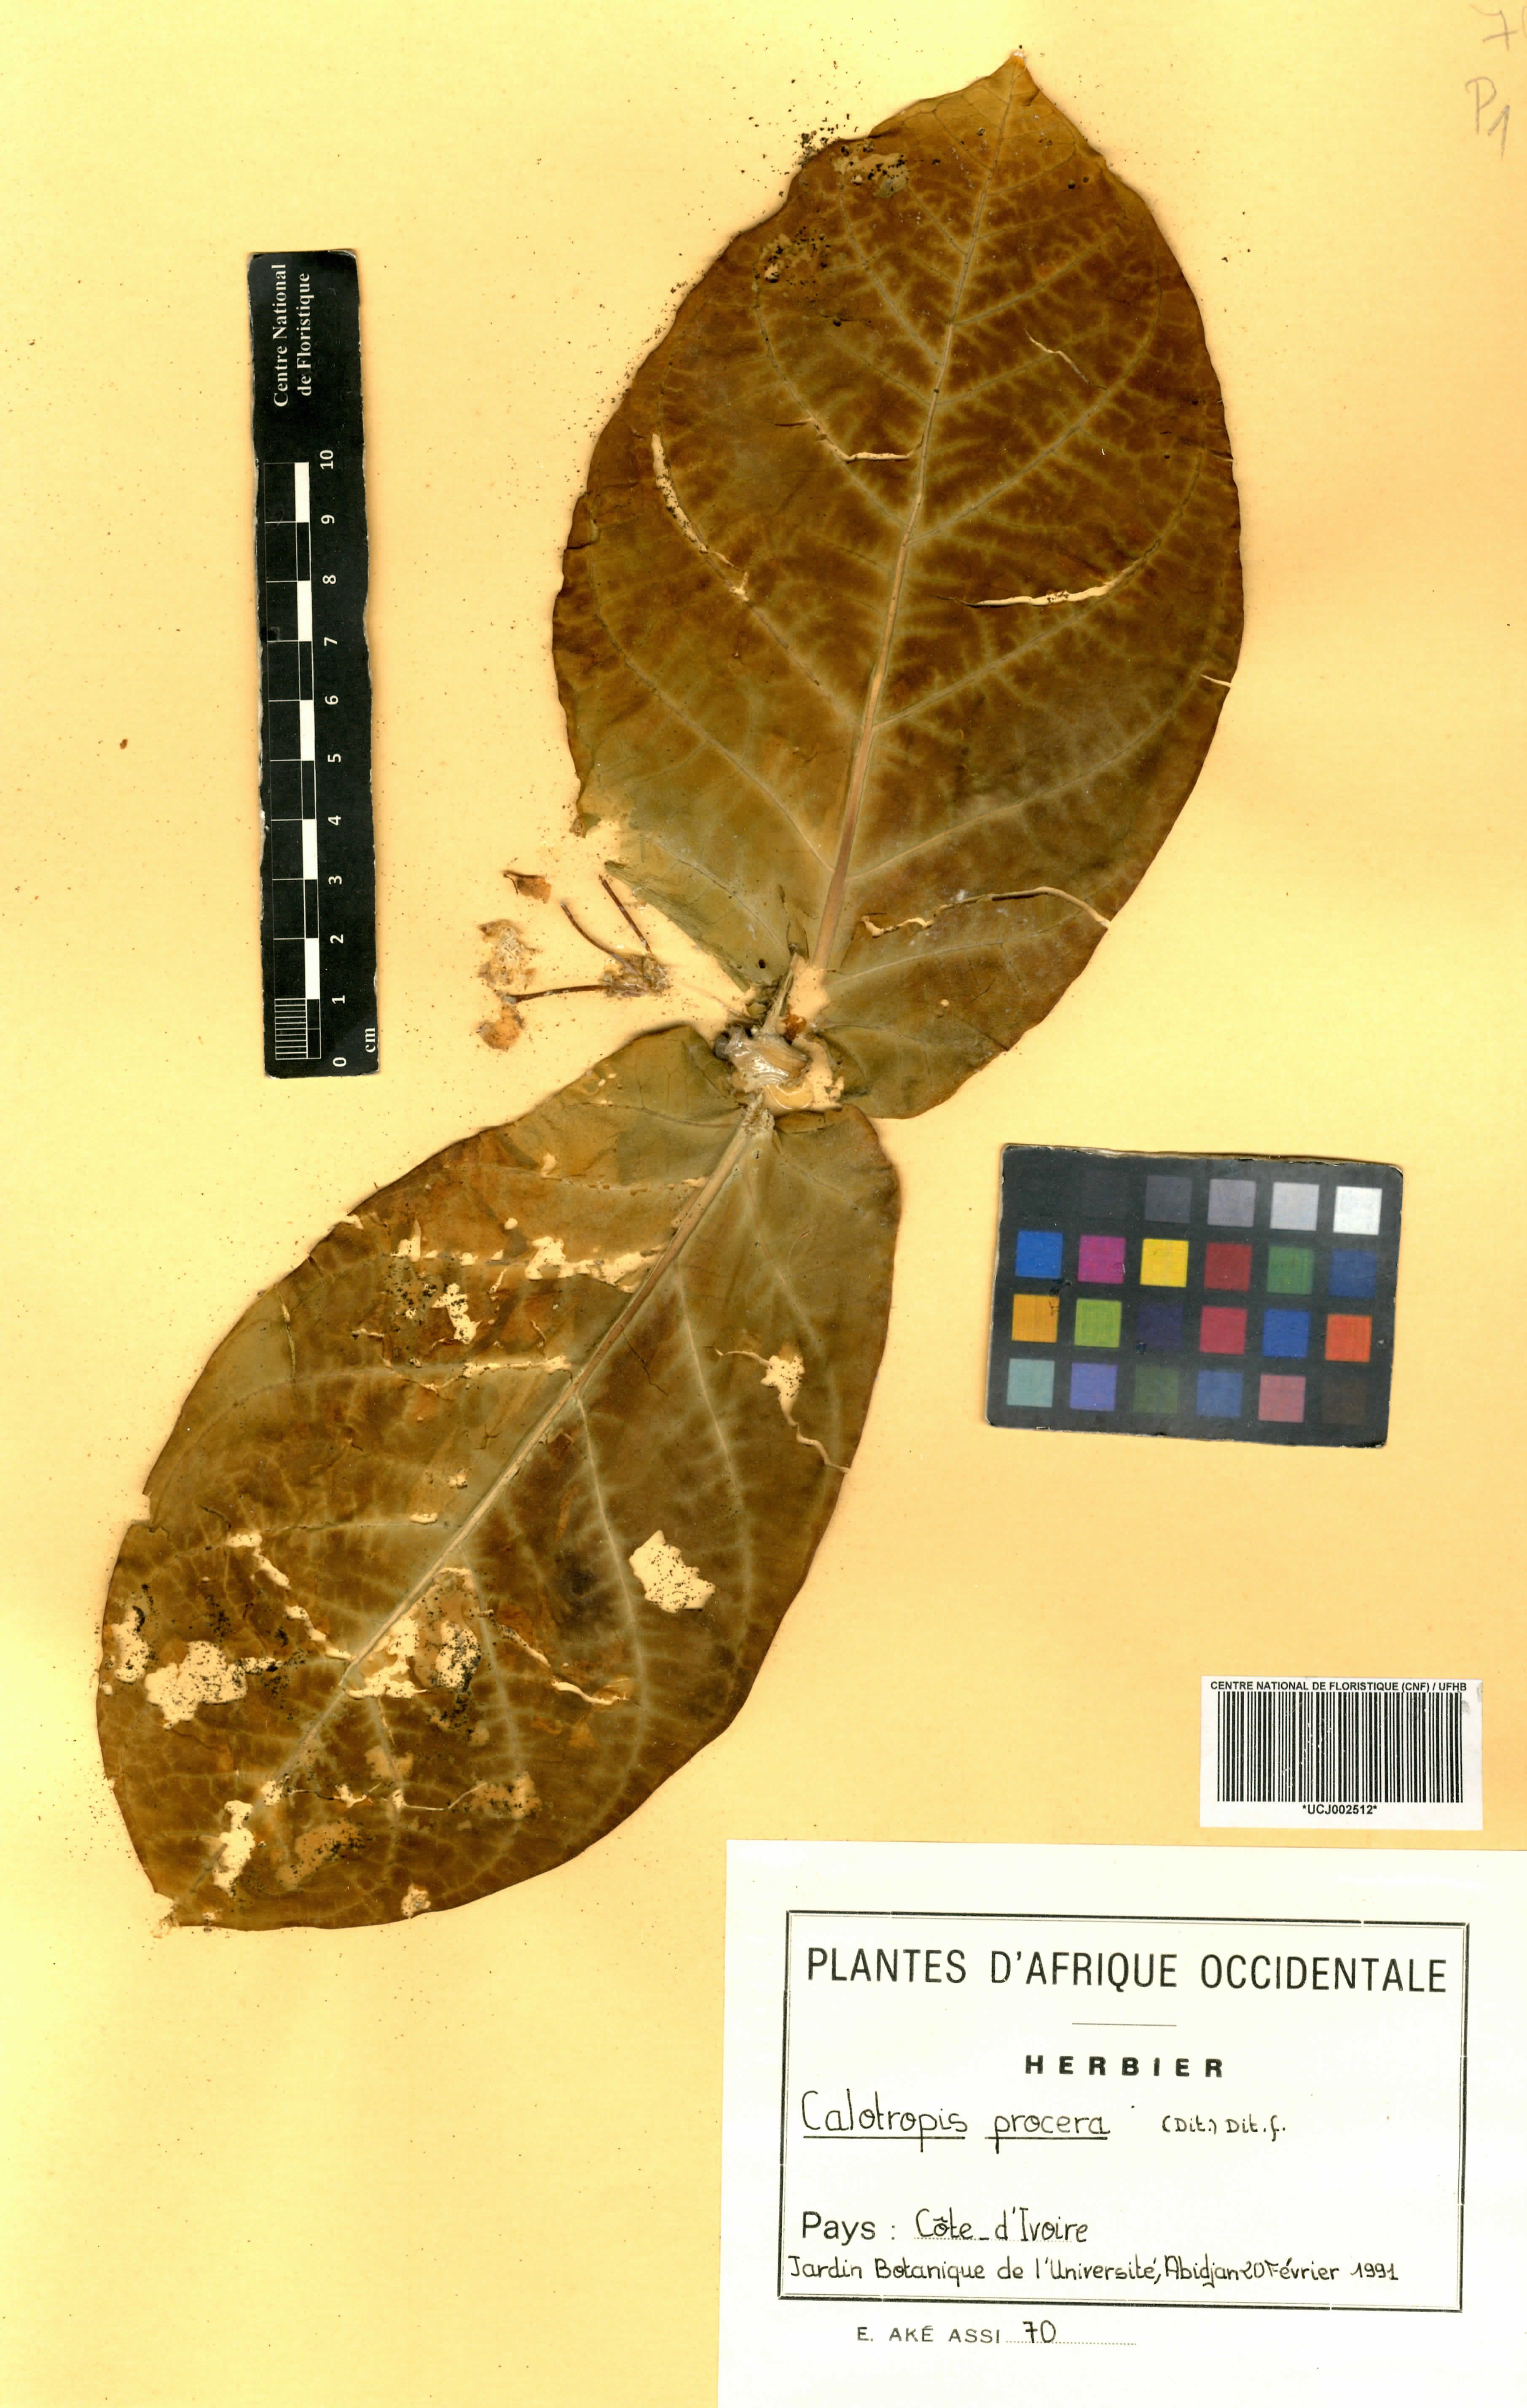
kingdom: Plantae
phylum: Tracheophyta
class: Magnoliopsida
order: Gentianales
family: Apocynaceae
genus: Calotropis
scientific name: Calotropis procera
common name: Roostertree
